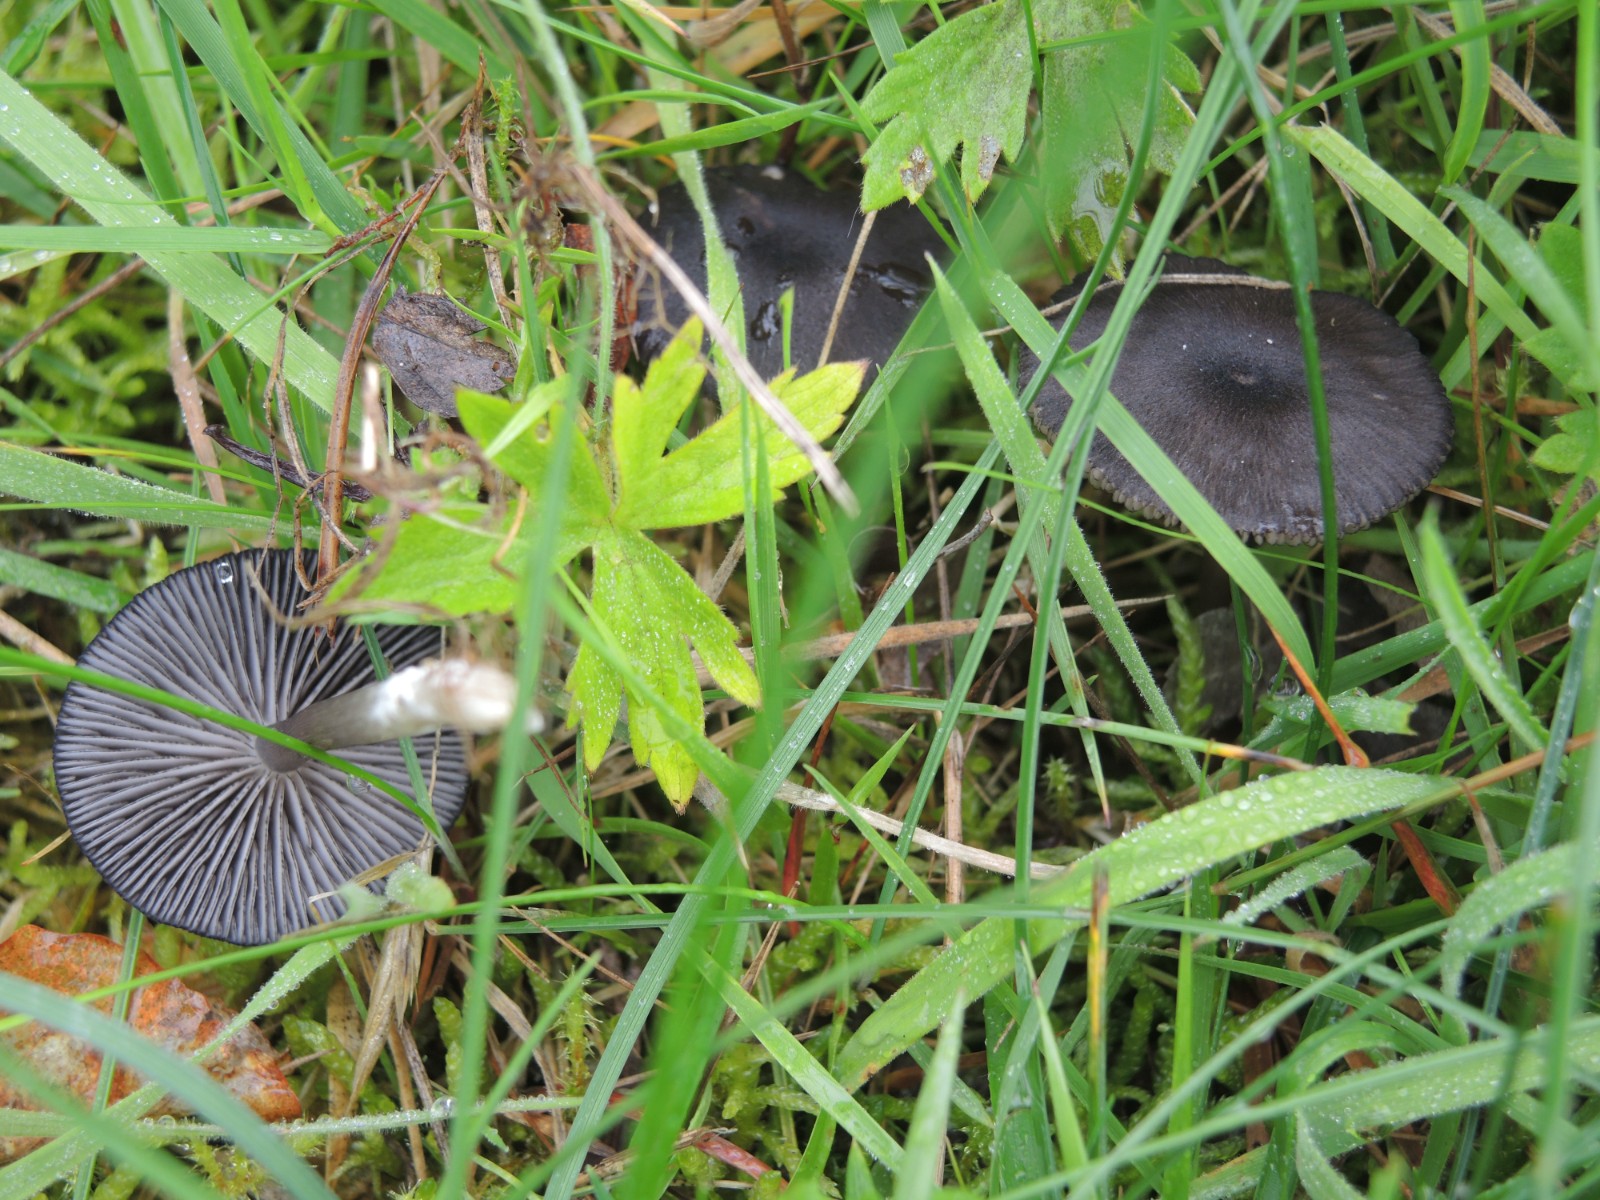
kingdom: Fungi
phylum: Basidiomycota
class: Agaricomycetes
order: Agaricales
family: Entolomataceae
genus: Entoloma
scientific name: Entoloma
